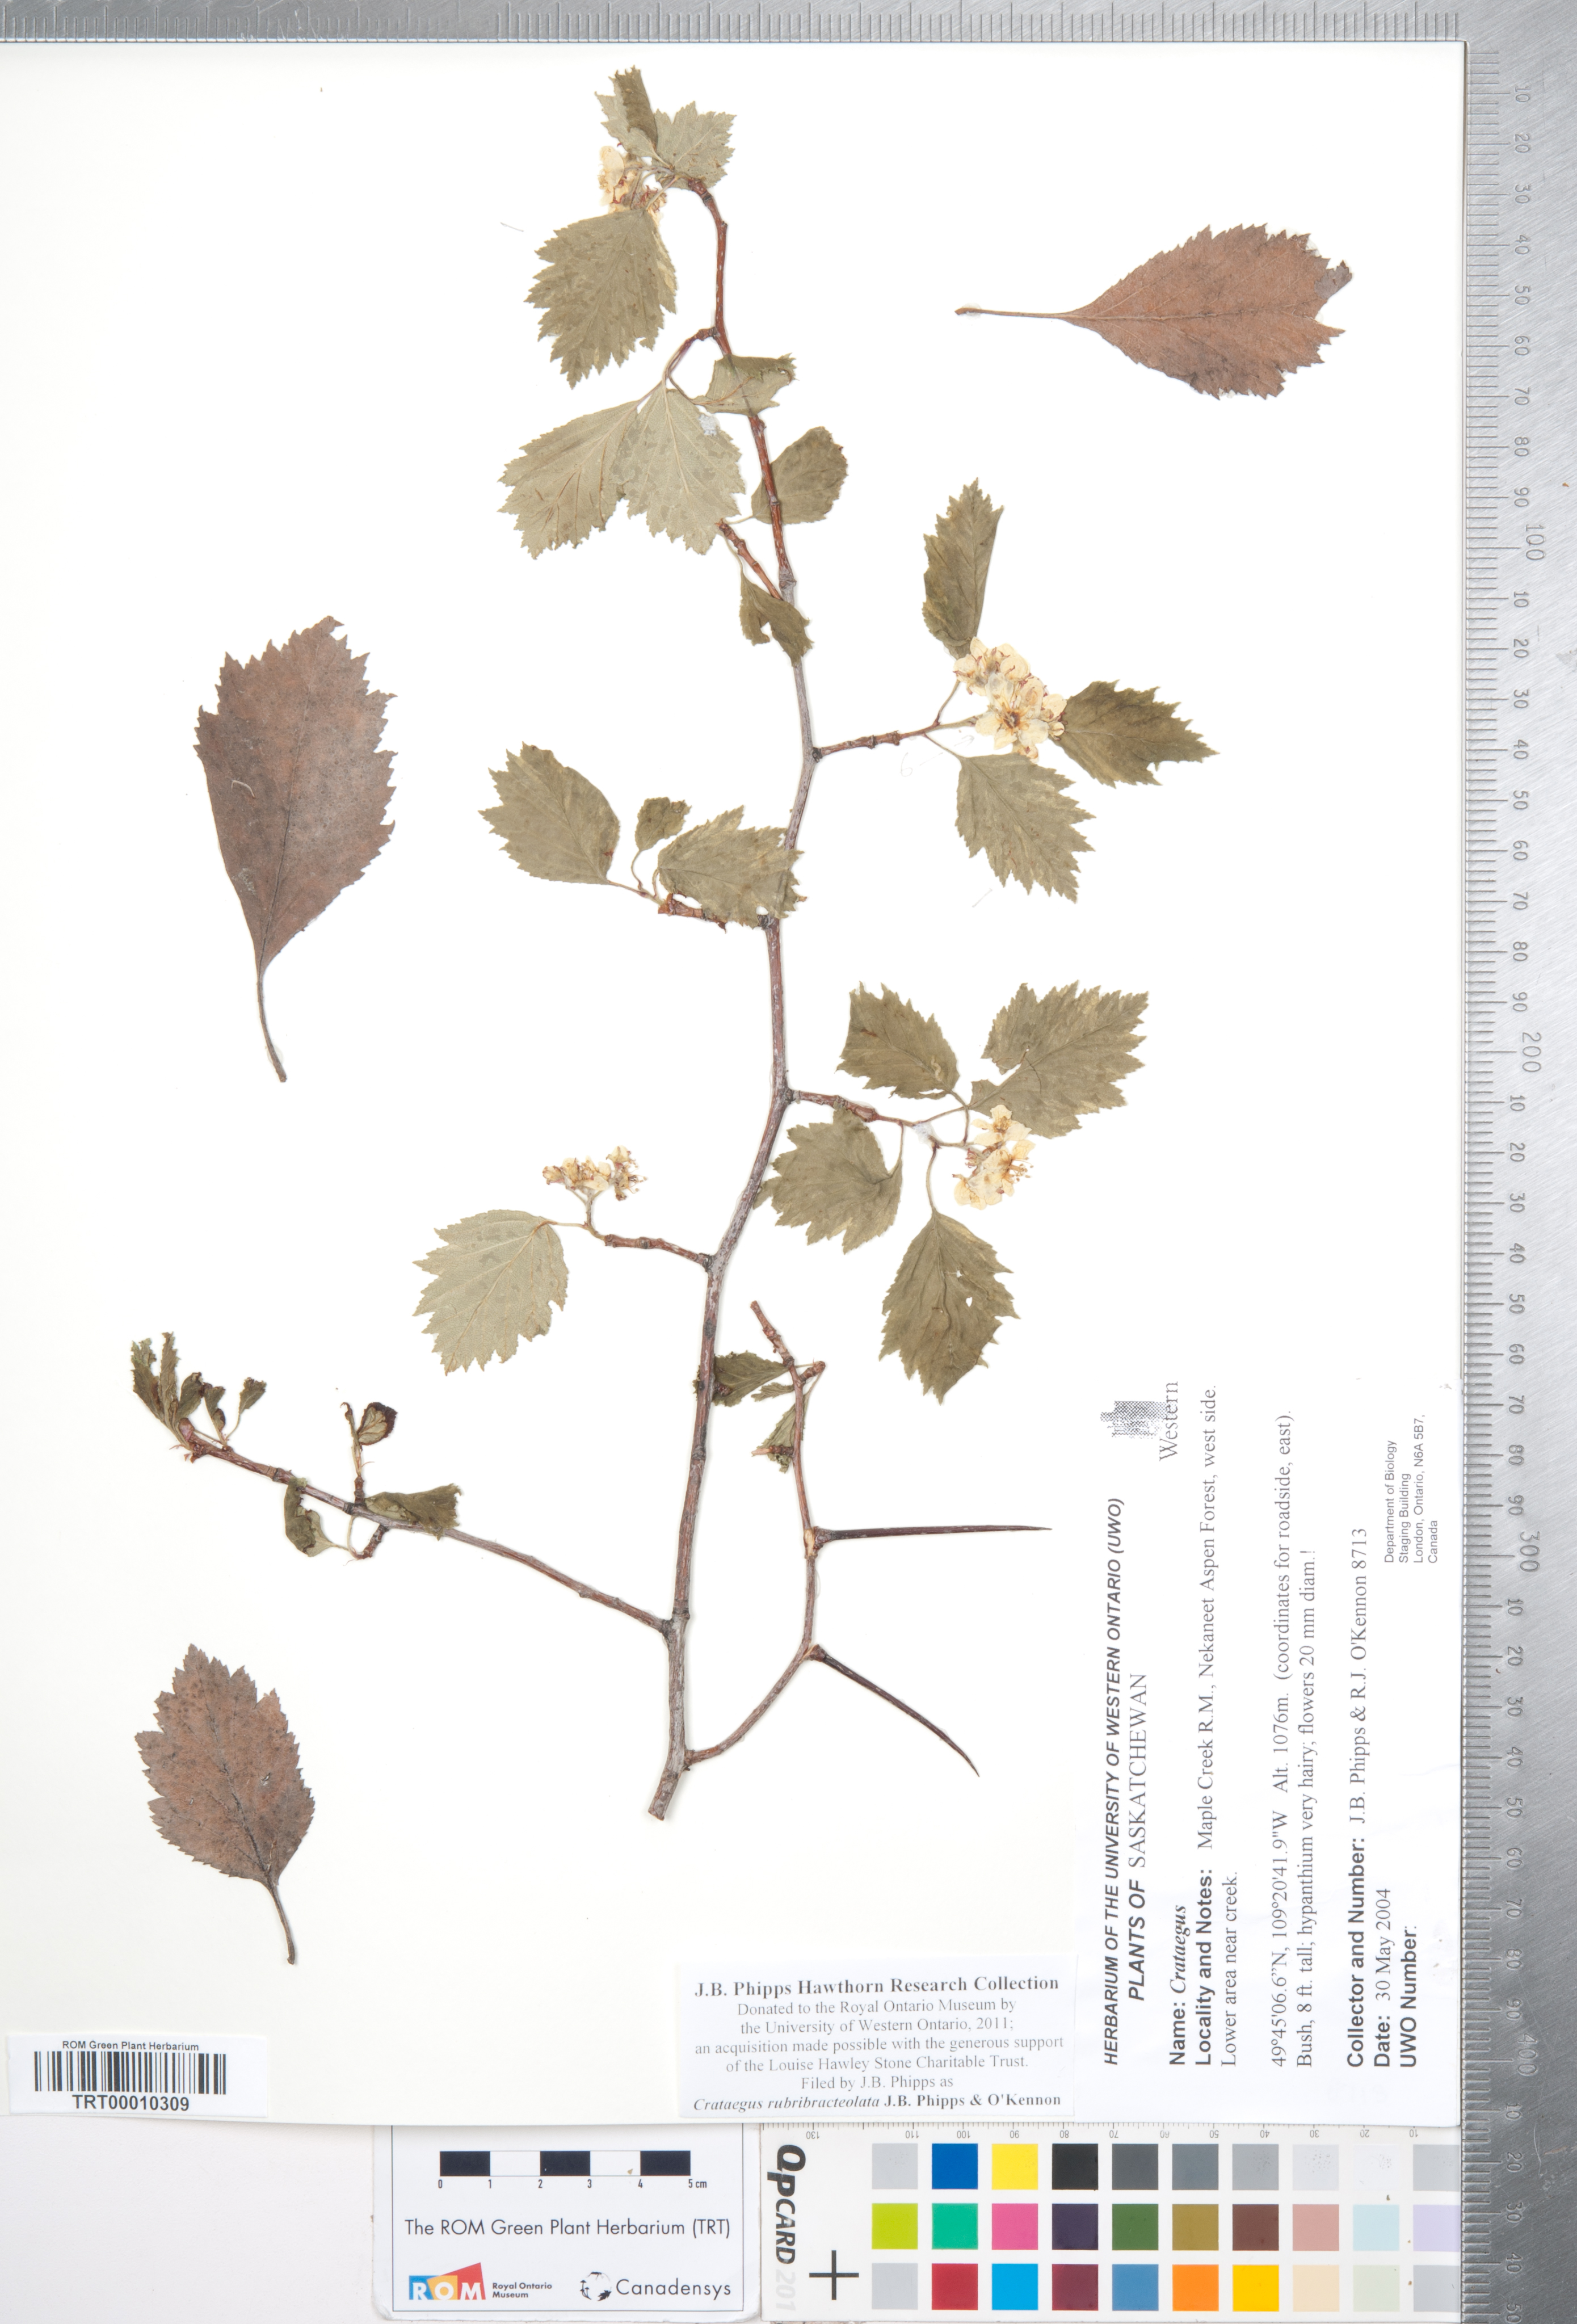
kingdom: Plantae
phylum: Tracheophyta
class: Magnoliopsida
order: Rosales
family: Rosaceae
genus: Crataegus
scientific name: Crataegus rubribracteolata
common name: Red bracteole hawthorn
